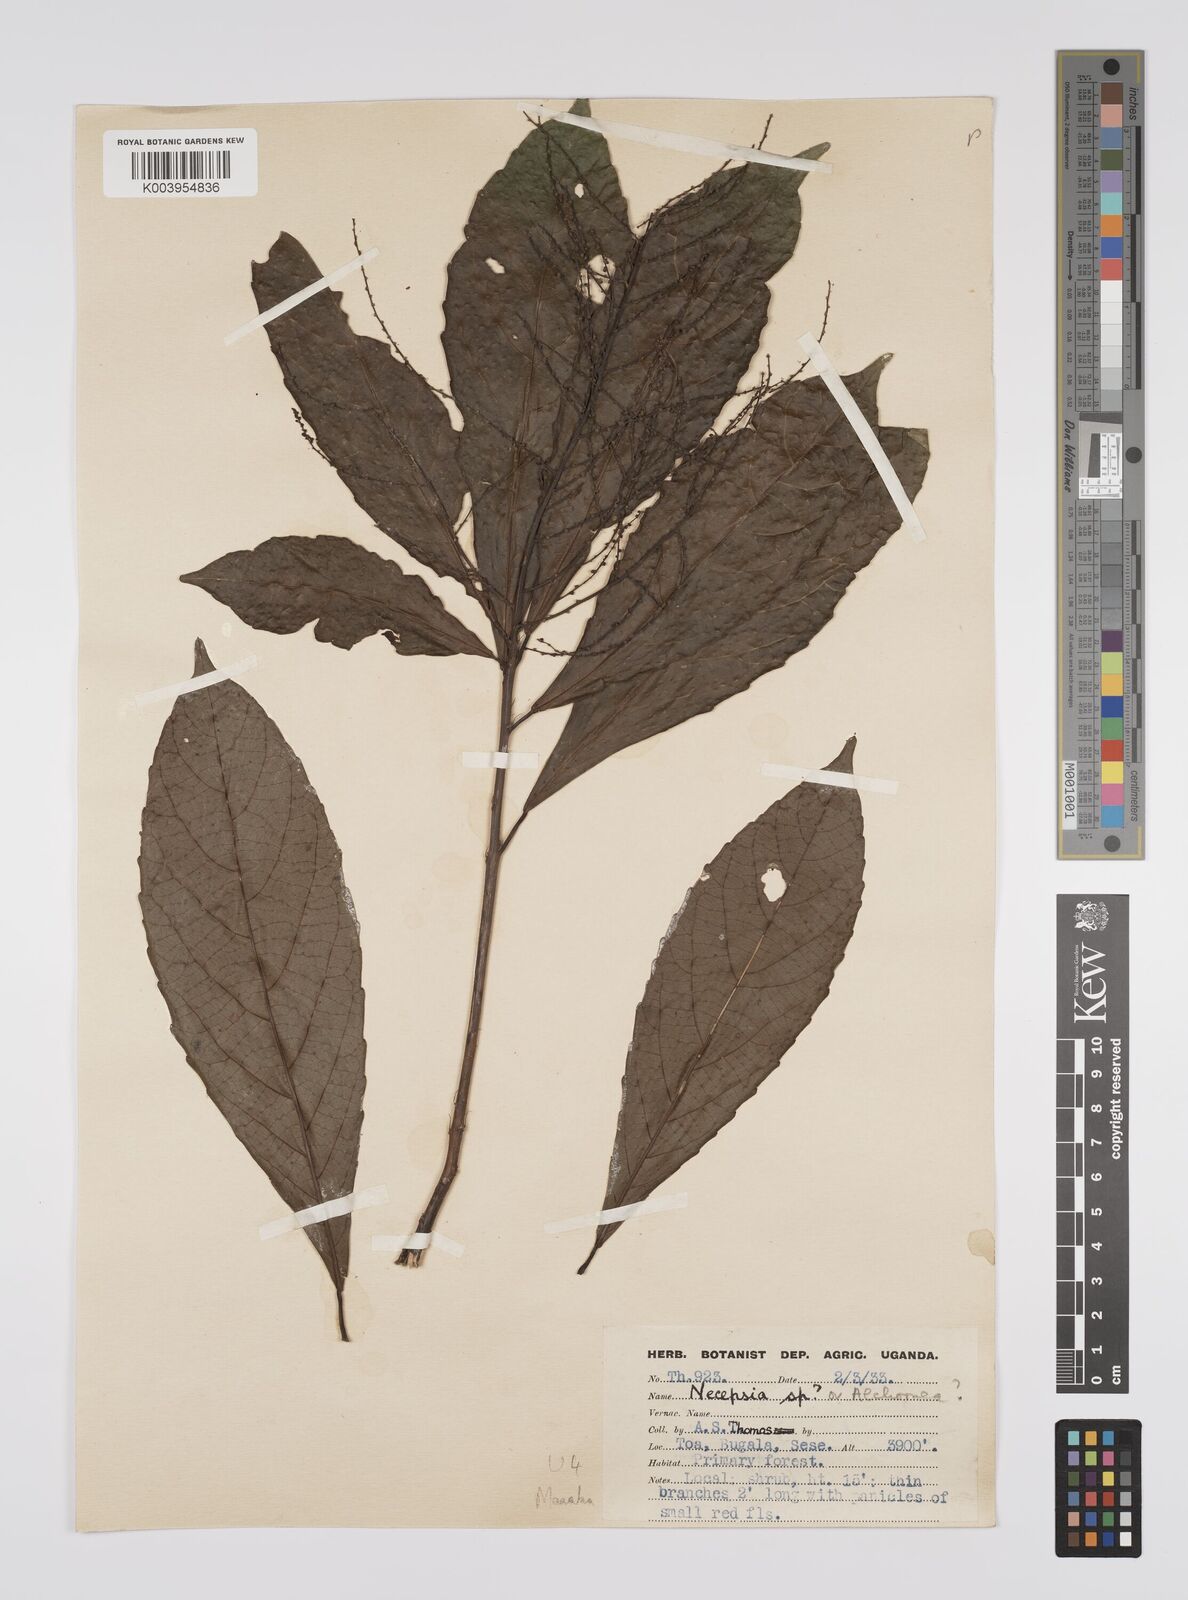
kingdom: Plantae
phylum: Tracheophyta
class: Magnoliopsida
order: Malpighiales
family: Euphorbiaceae
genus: Alchornea
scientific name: Alchornea hirtella
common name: Forest bead-string
